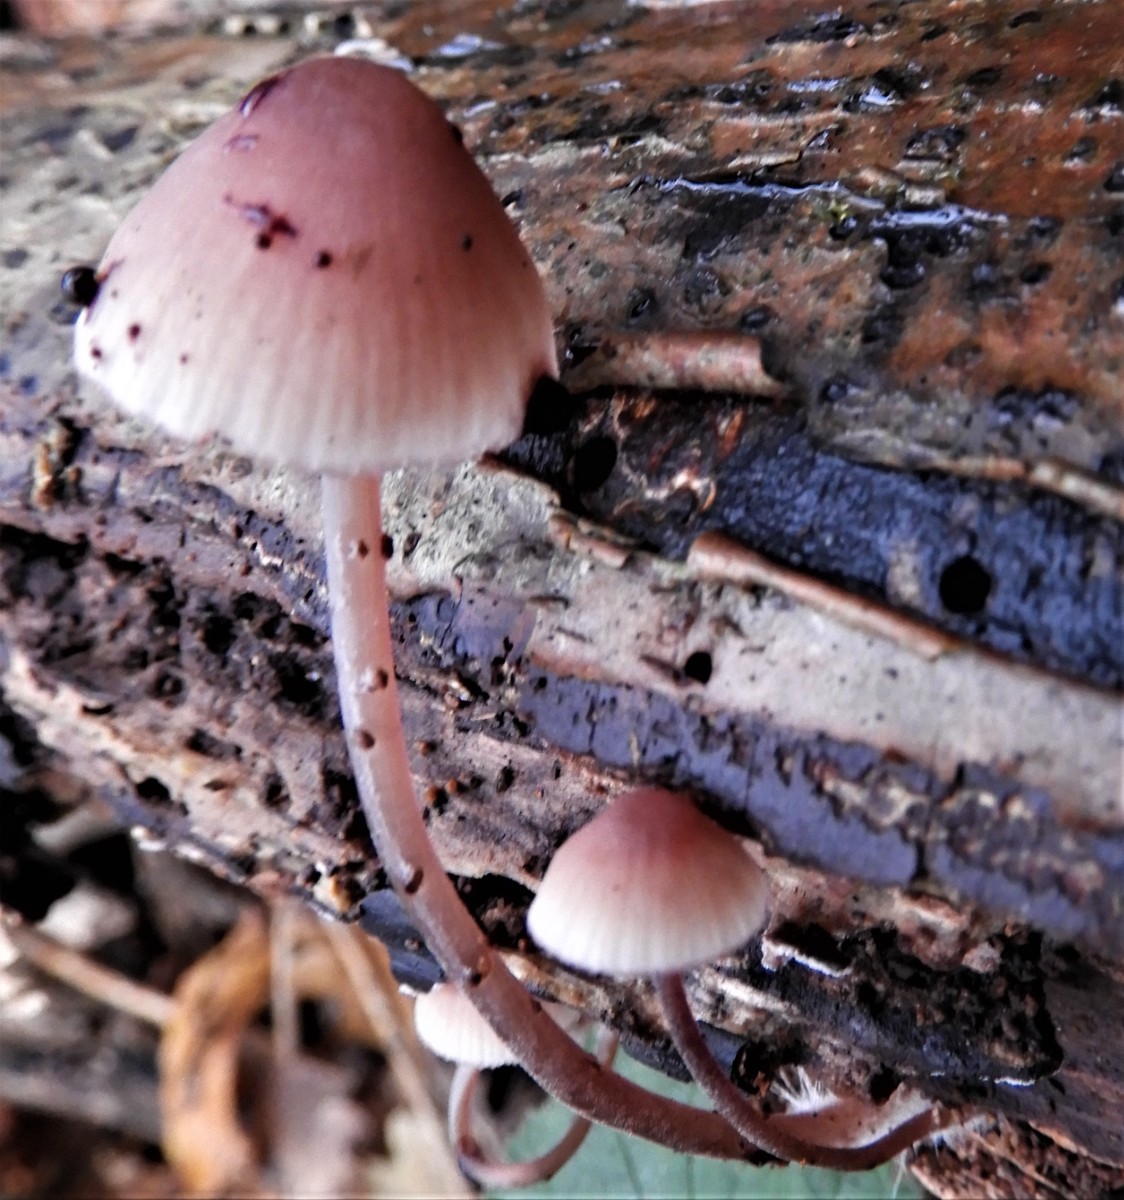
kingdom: Fungi
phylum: Basidiomycota
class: Agaricomycetes
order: Agaricales
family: Mycenaceae
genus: Mycena
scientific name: Mycena haematopus
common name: blødende huesvamp
